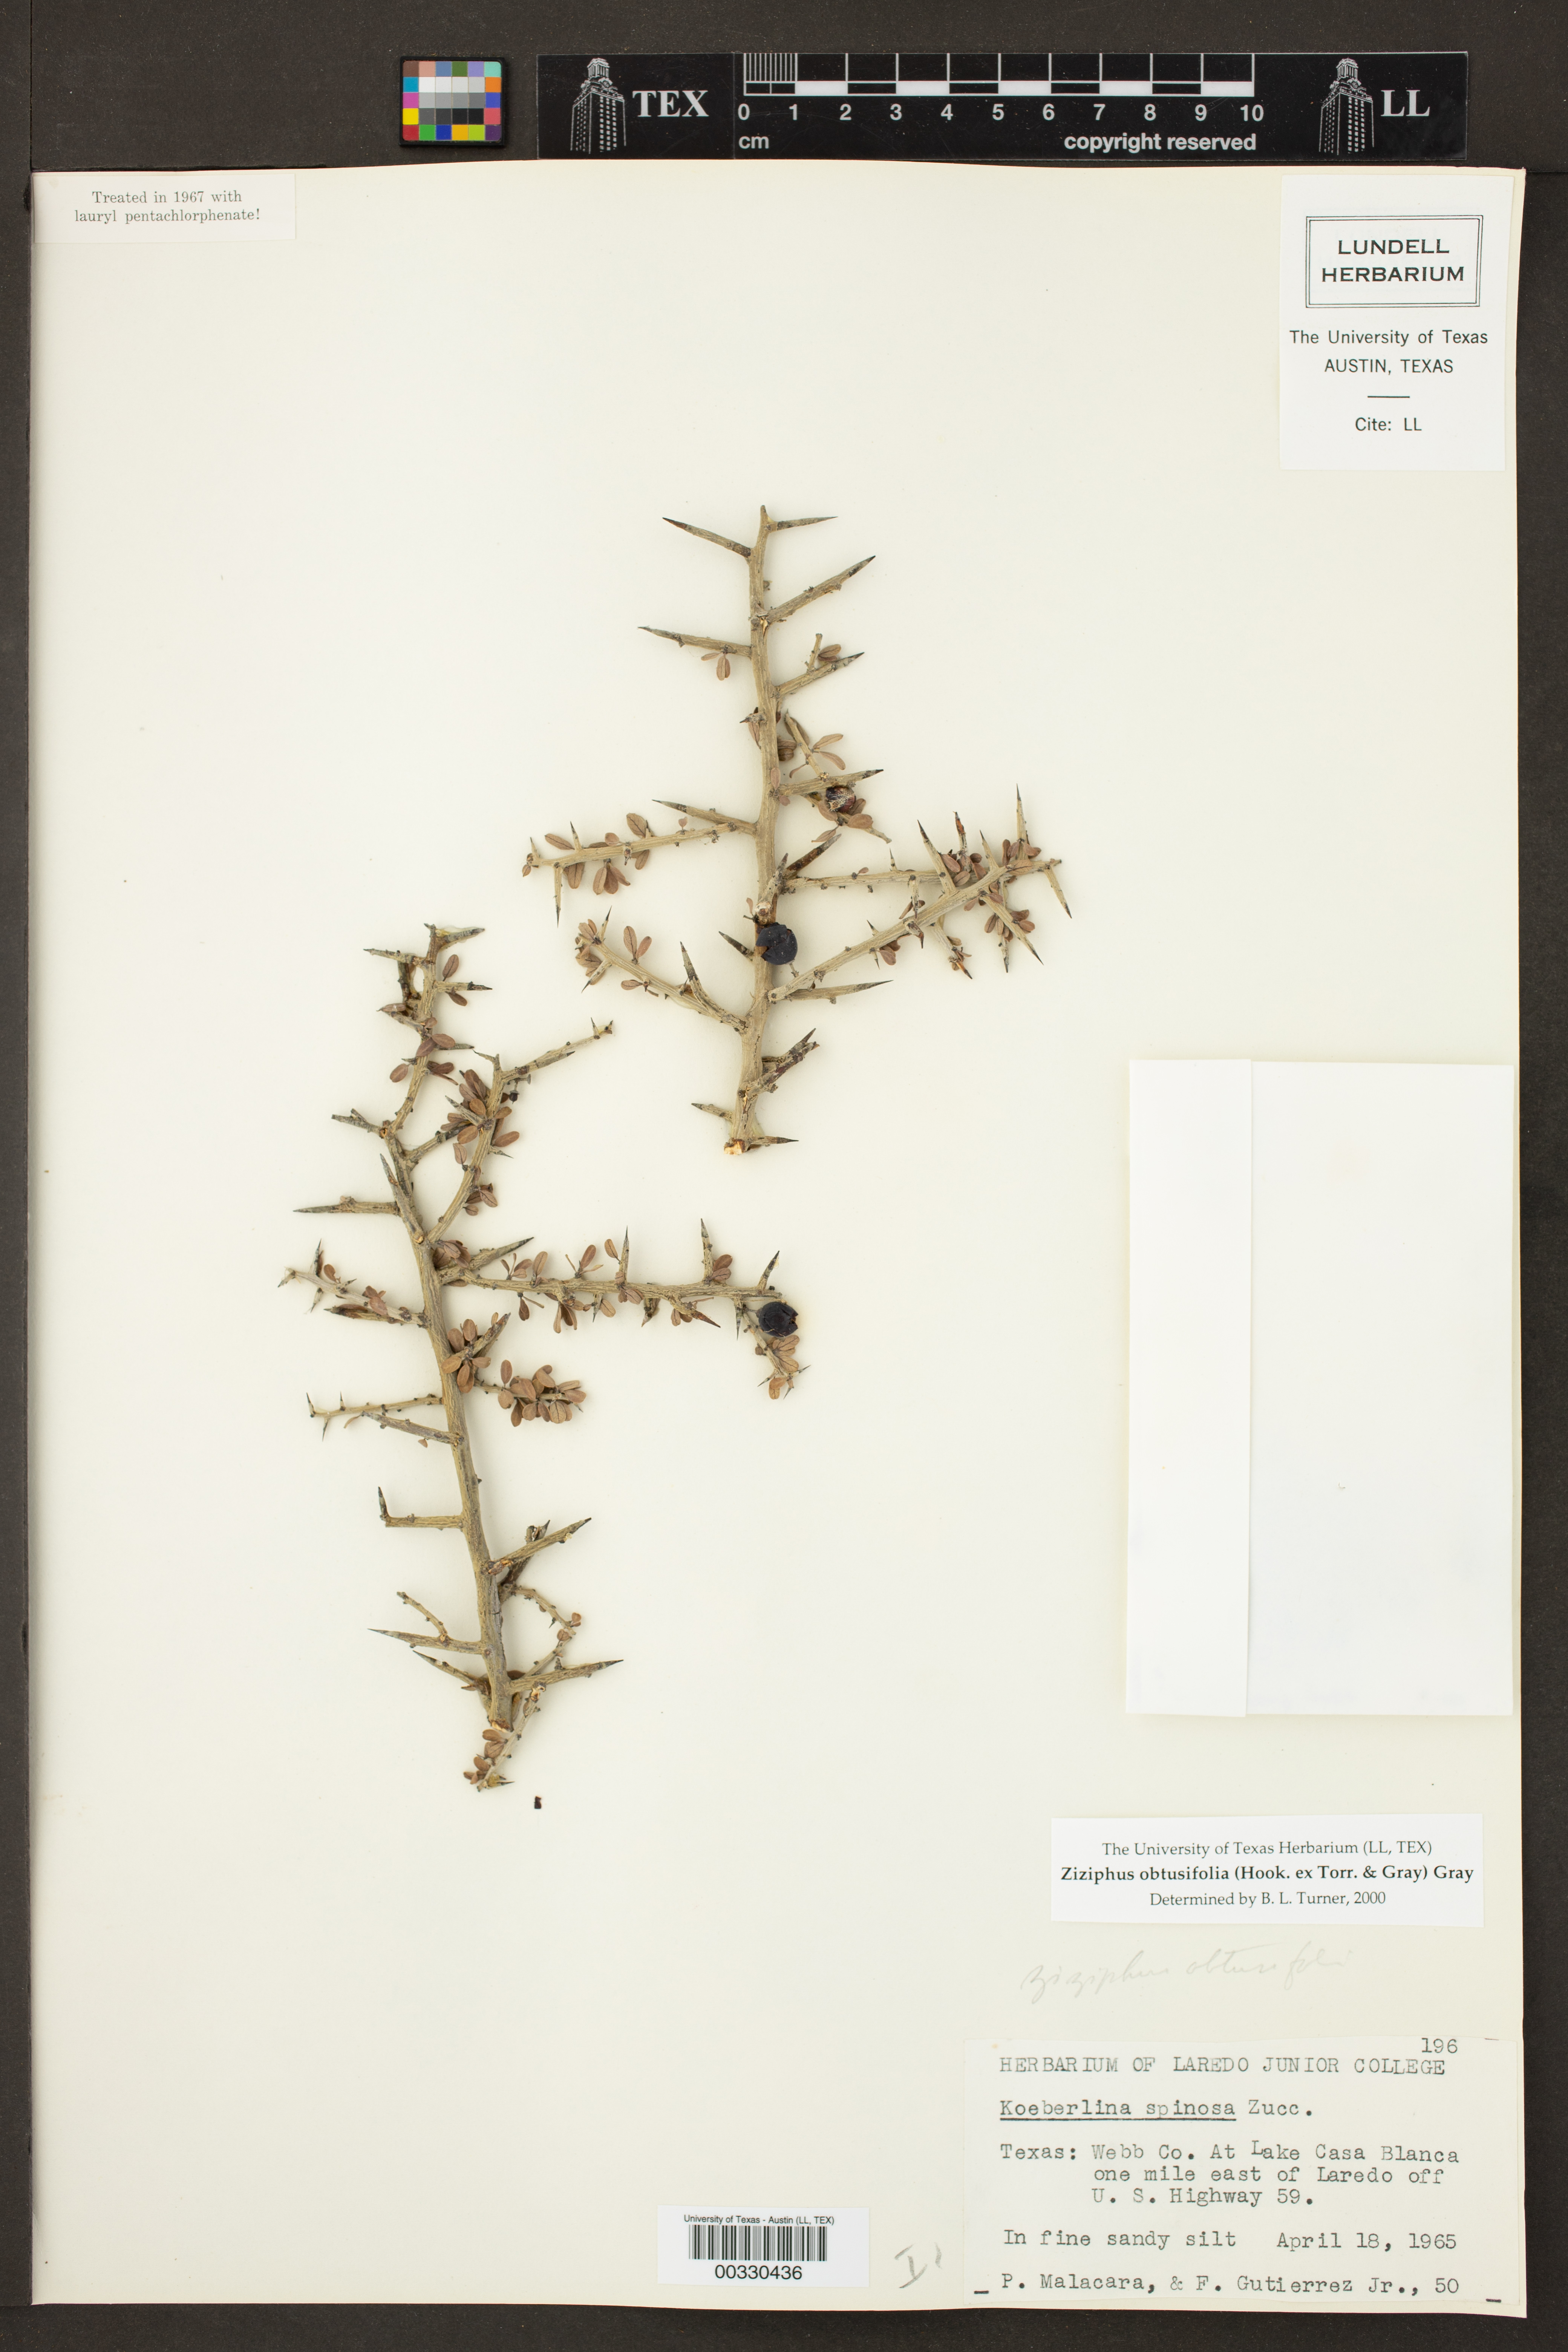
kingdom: Plantae
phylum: Tracheophyta
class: Magnoliopsida
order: Rosales
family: Rhamnaceae
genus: Sarcomphalus
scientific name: Sarcomphalus obtusifolius
